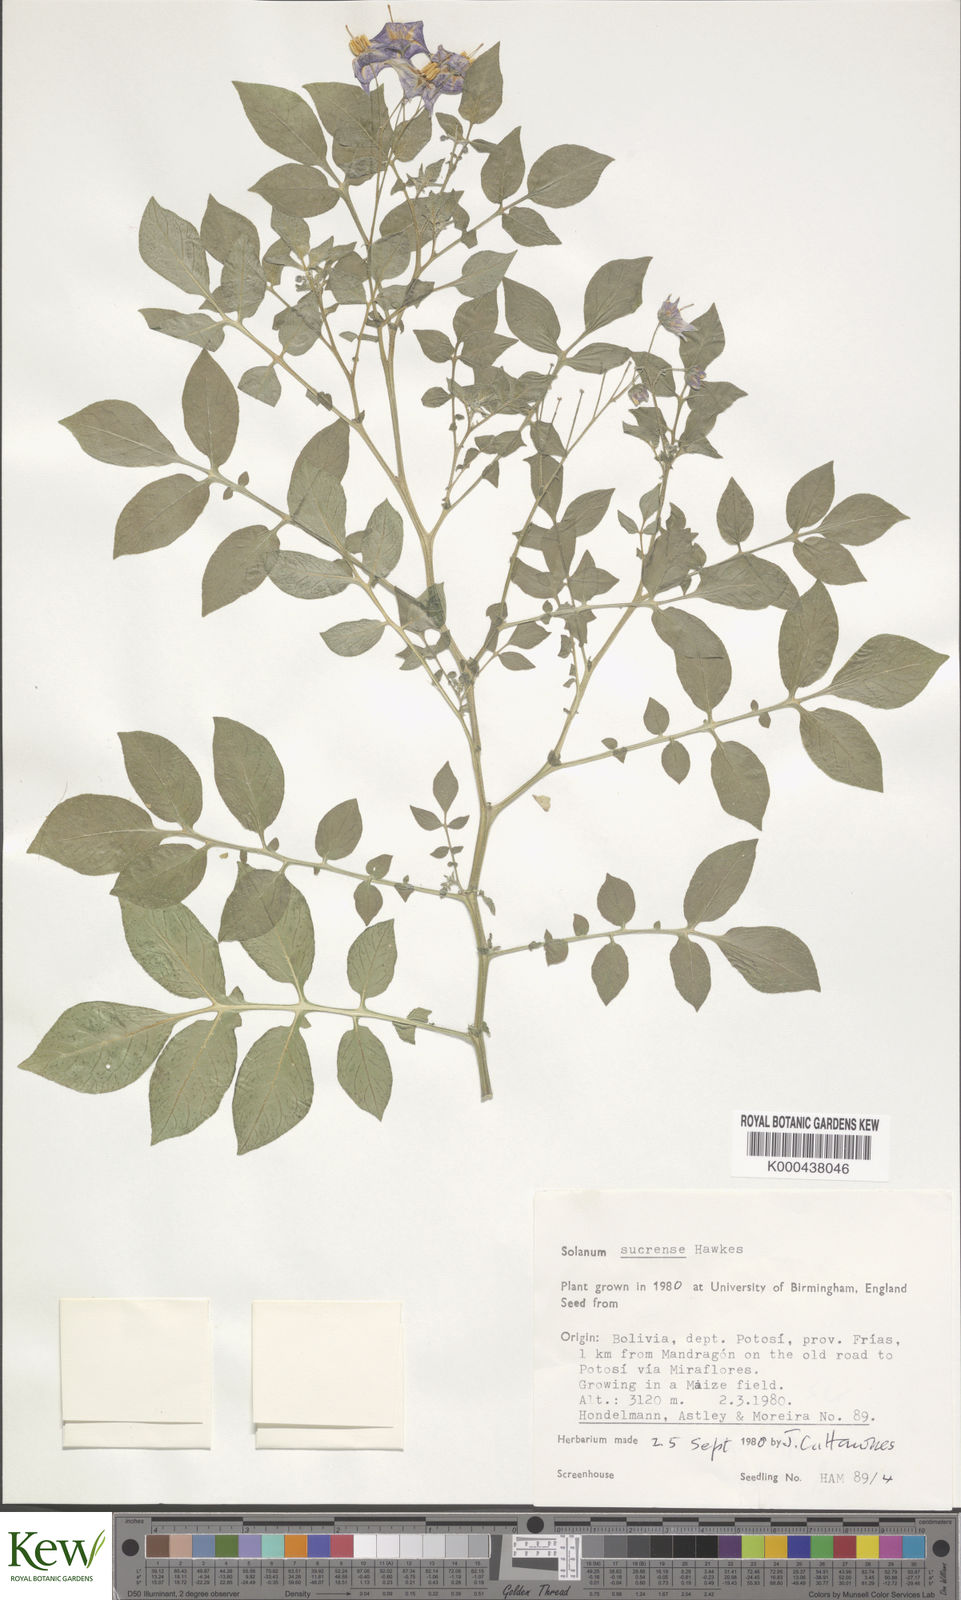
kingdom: Plantae
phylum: Tracheophyta
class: Magnoliopsida
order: Solanales
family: Solanaceae
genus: Solanum
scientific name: Solanum brevicaule
